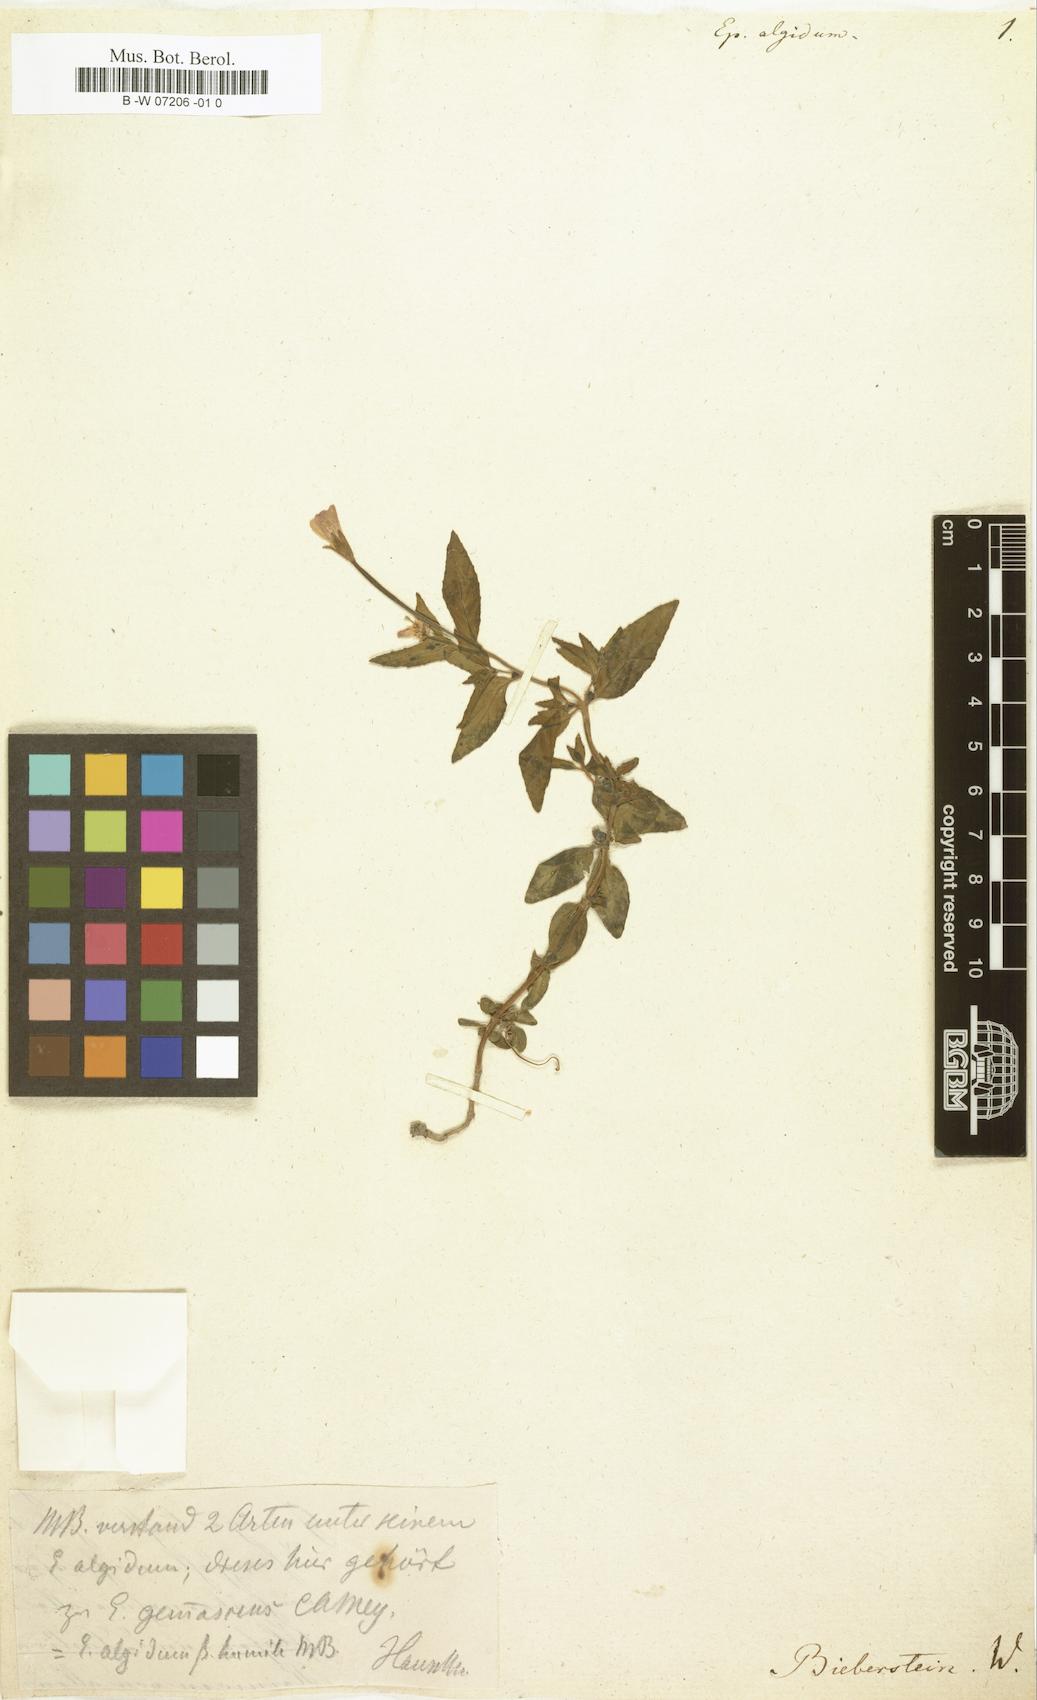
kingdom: Plantae
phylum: Tracheophyta
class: Magnoliopsida
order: Myrtales
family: Onagraceae
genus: Epilobium
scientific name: Epilobium algidum
